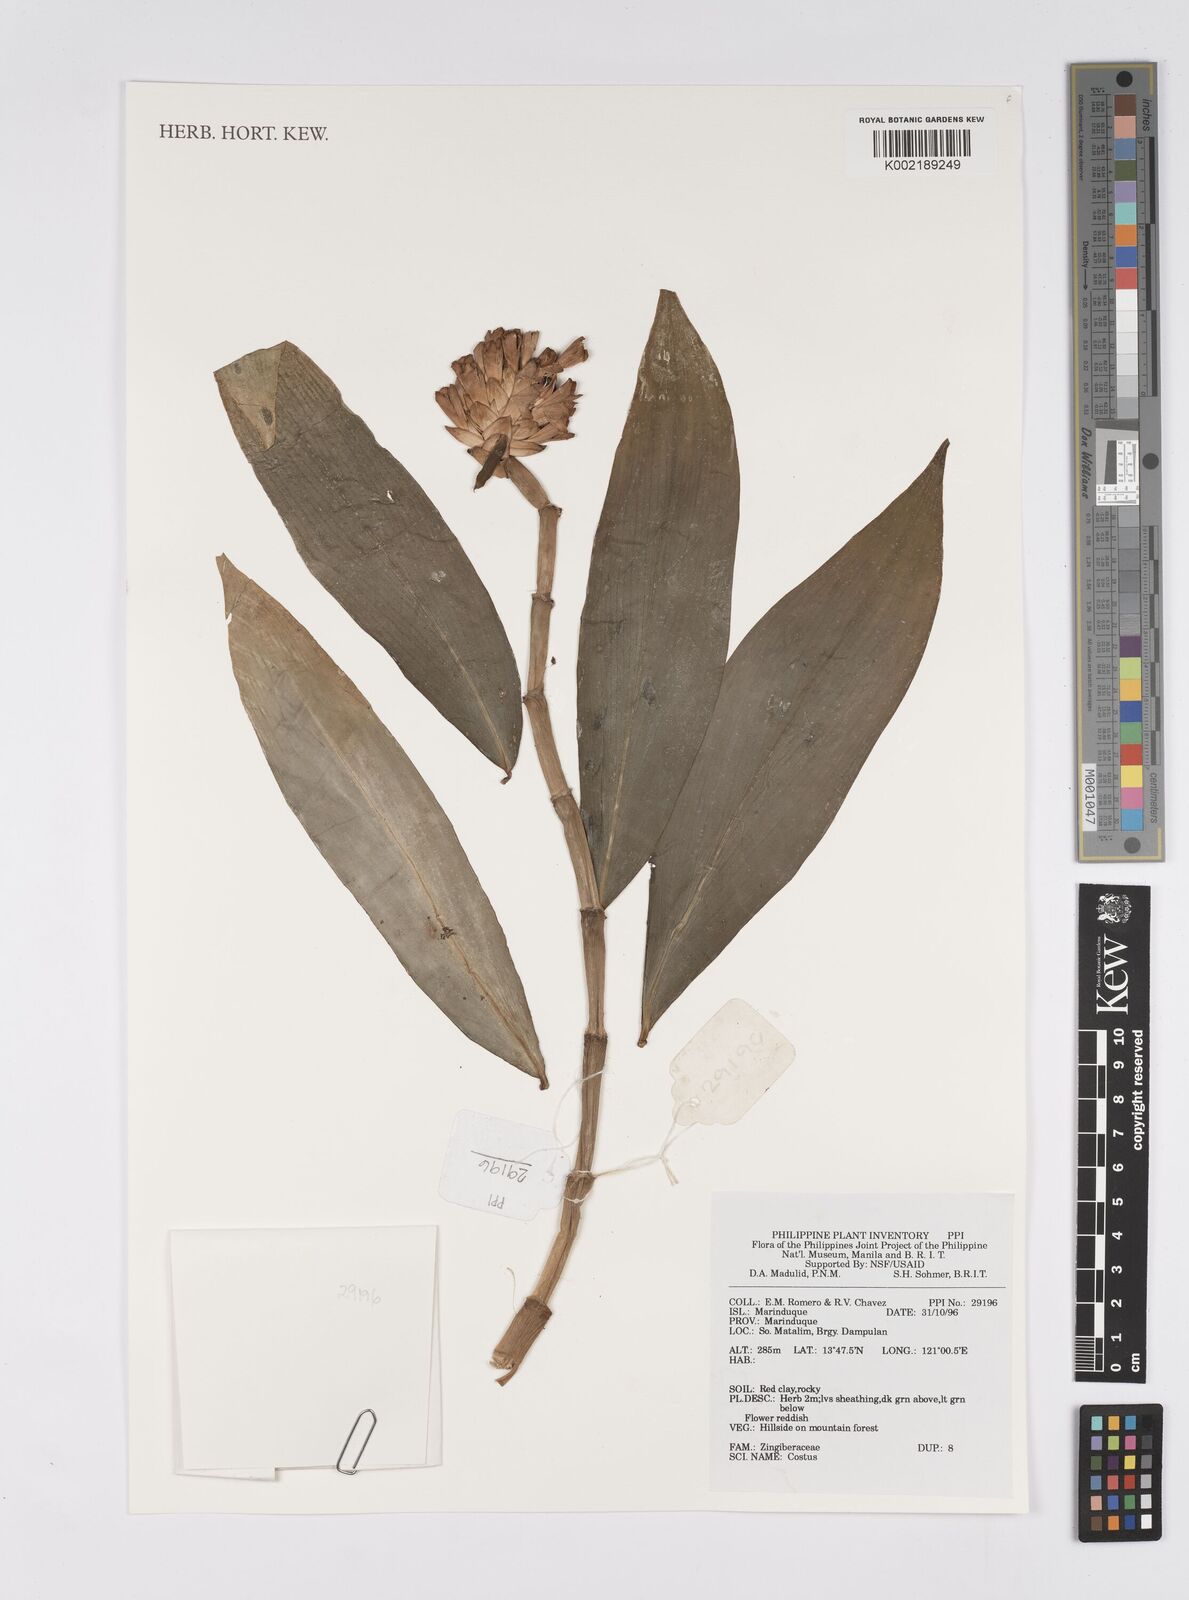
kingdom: Plantae
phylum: Tracheophyta
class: Liliopsida
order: Zingiberales
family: Costaceae
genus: Costus
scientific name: Costus
